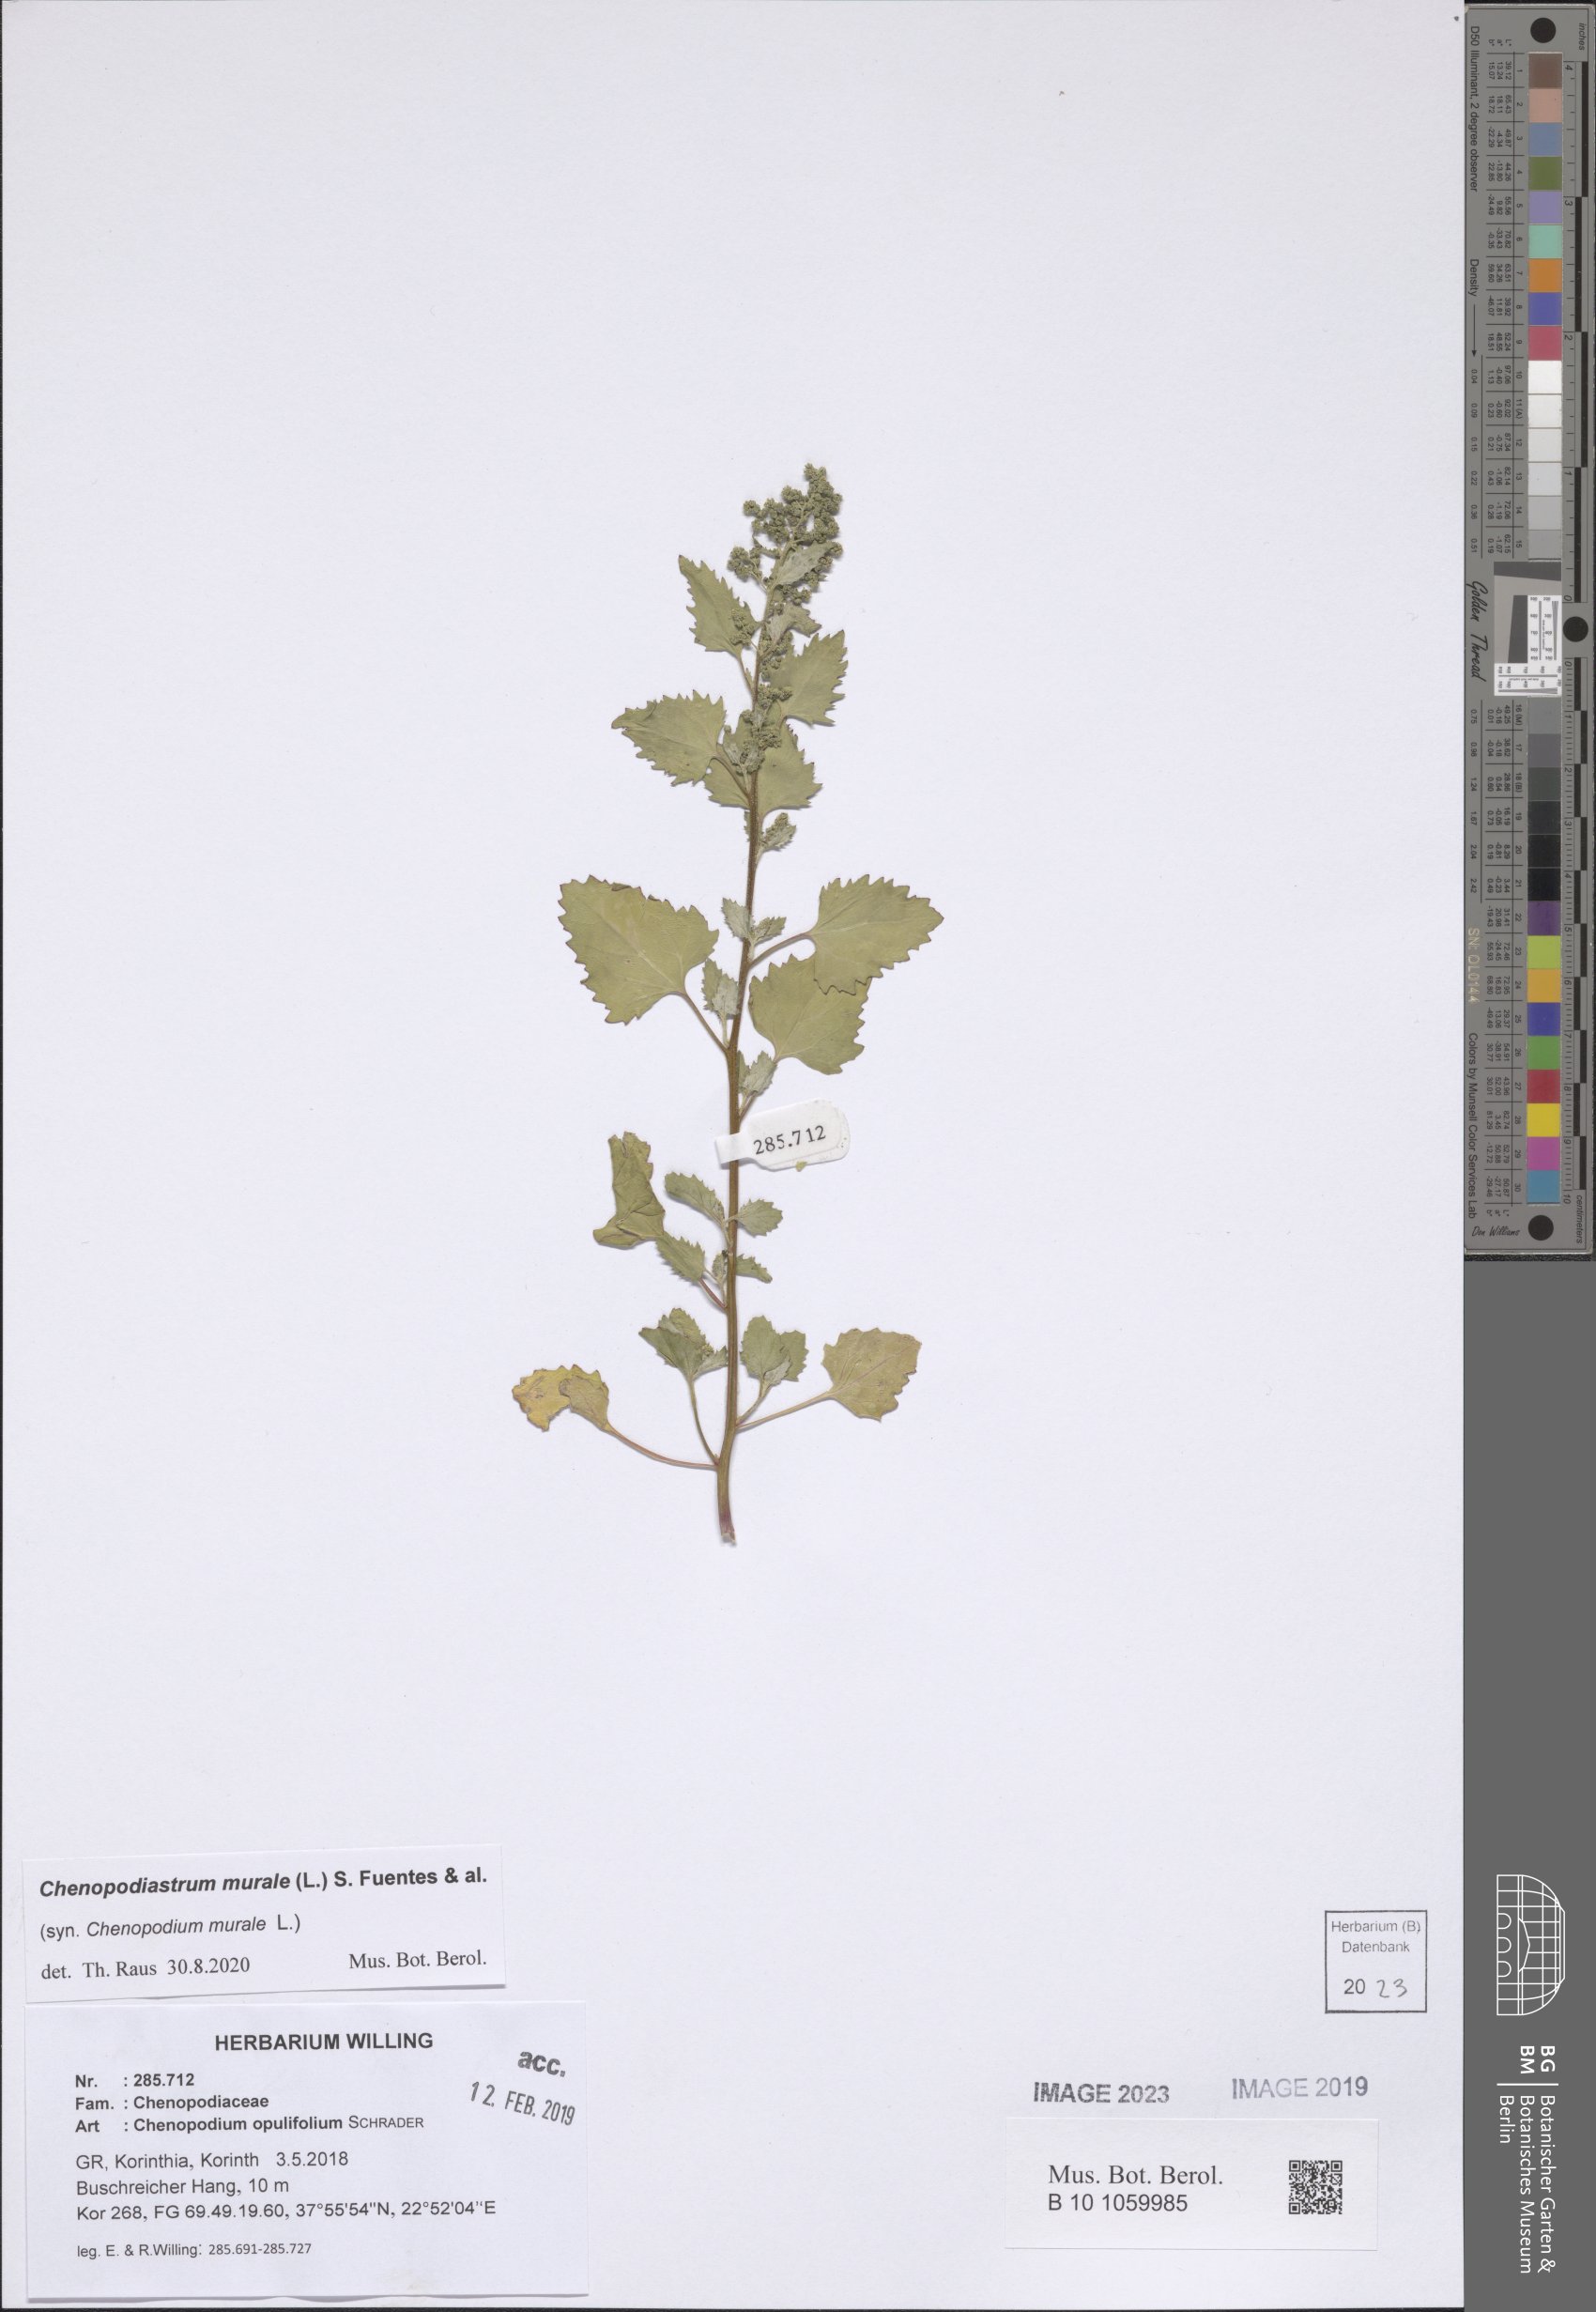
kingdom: Plantae
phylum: Tracheophyta
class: Magnoliopsida
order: Caryophyllales
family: Amaranthaceae
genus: Chenopodiastrum
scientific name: Chenopodiastrum murale
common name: Sowbane
